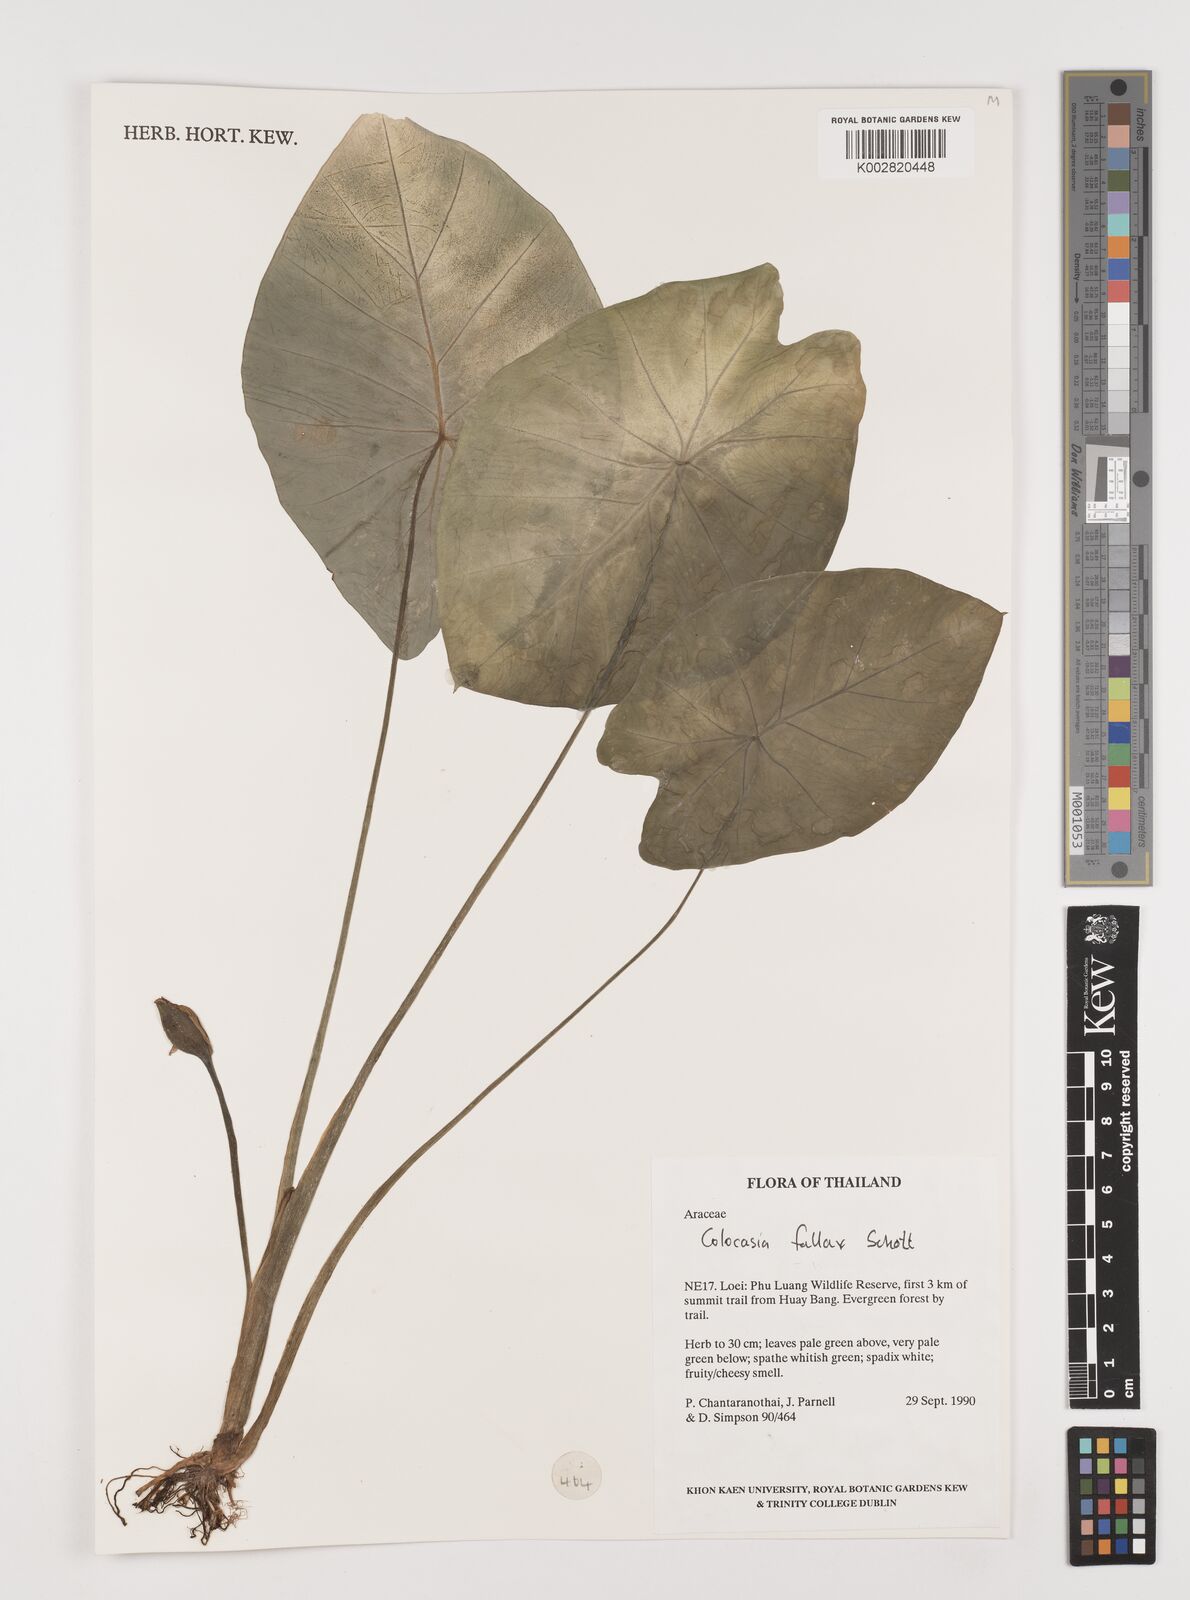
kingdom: Plantae
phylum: Tracheophyta
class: Liliopsida
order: Alismatales
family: Araceae
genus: Colocasia
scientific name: Colocasia fallax
